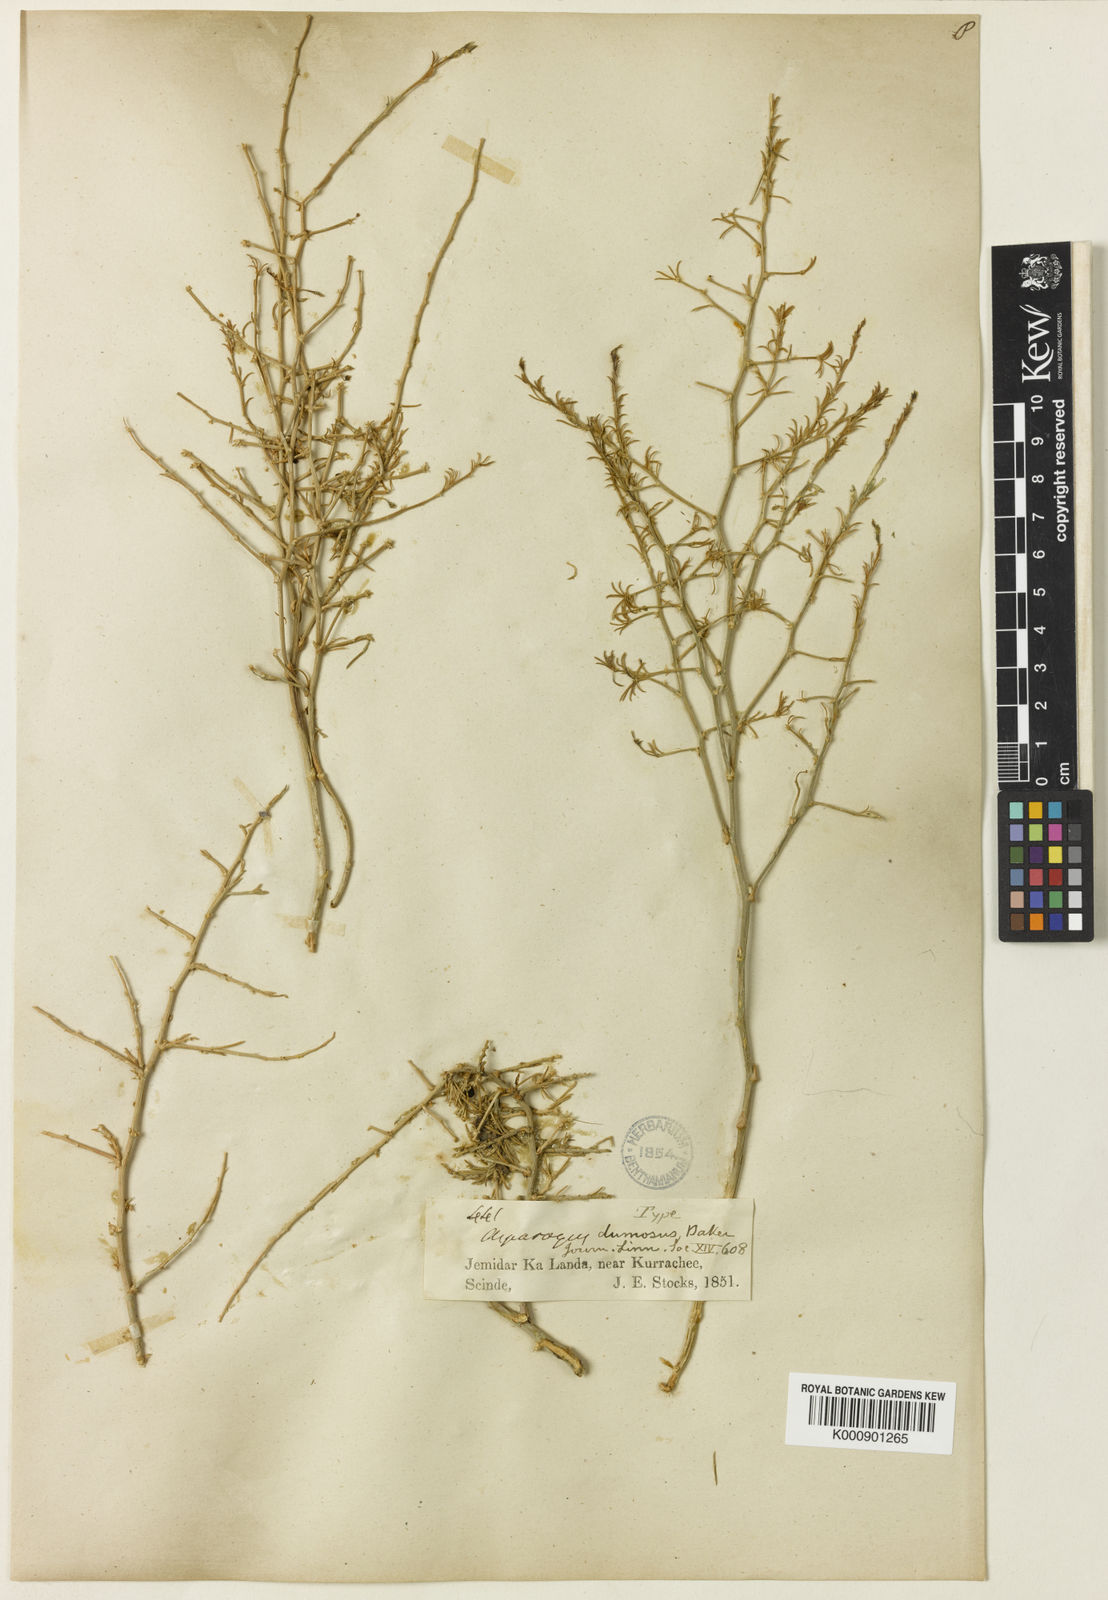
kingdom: Plantae
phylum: Tracheophyta
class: Liliopsida
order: Asparagales
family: Asparagaceae
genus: Asparagus
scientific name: Asparagus dumosus
